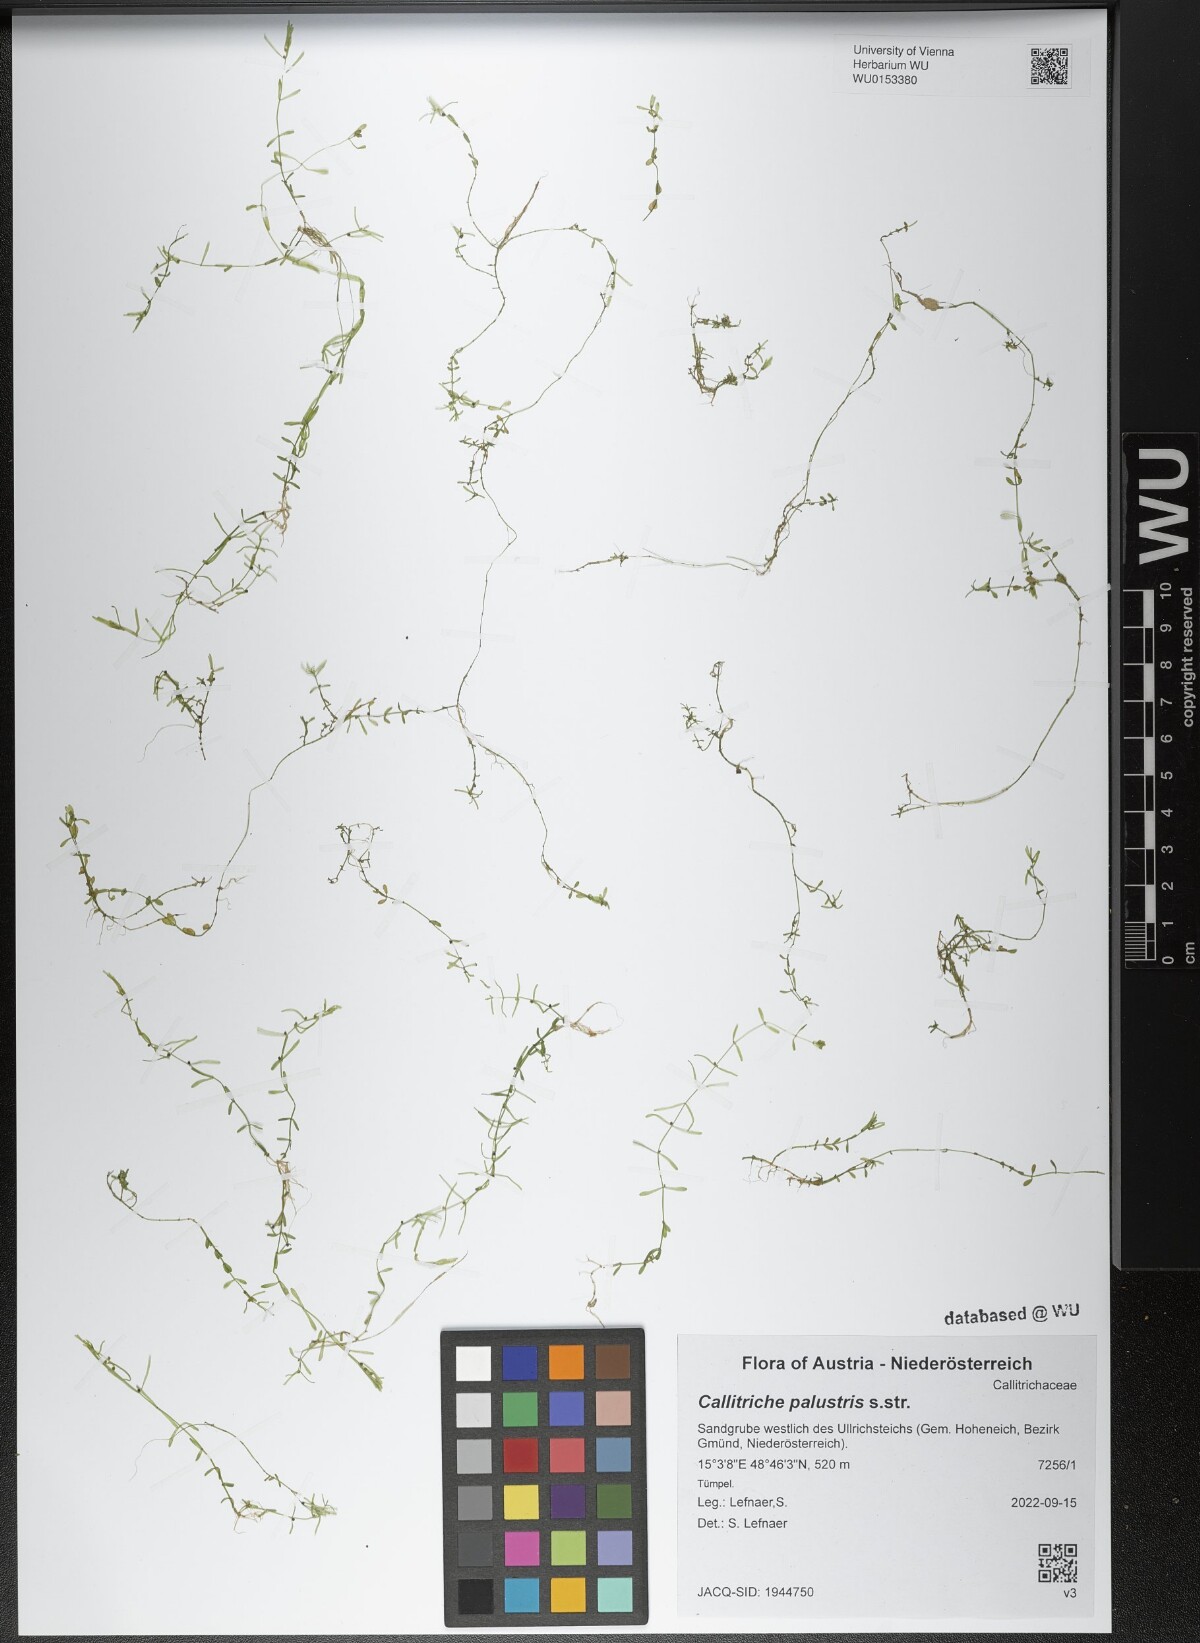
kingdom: Plantae
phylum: Tracheophyta
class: Magnoliopsida
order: Lamiales
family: Plantaginaceae
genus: Callitriche
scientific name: Callitriche palustris
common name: Spring water-starwort
